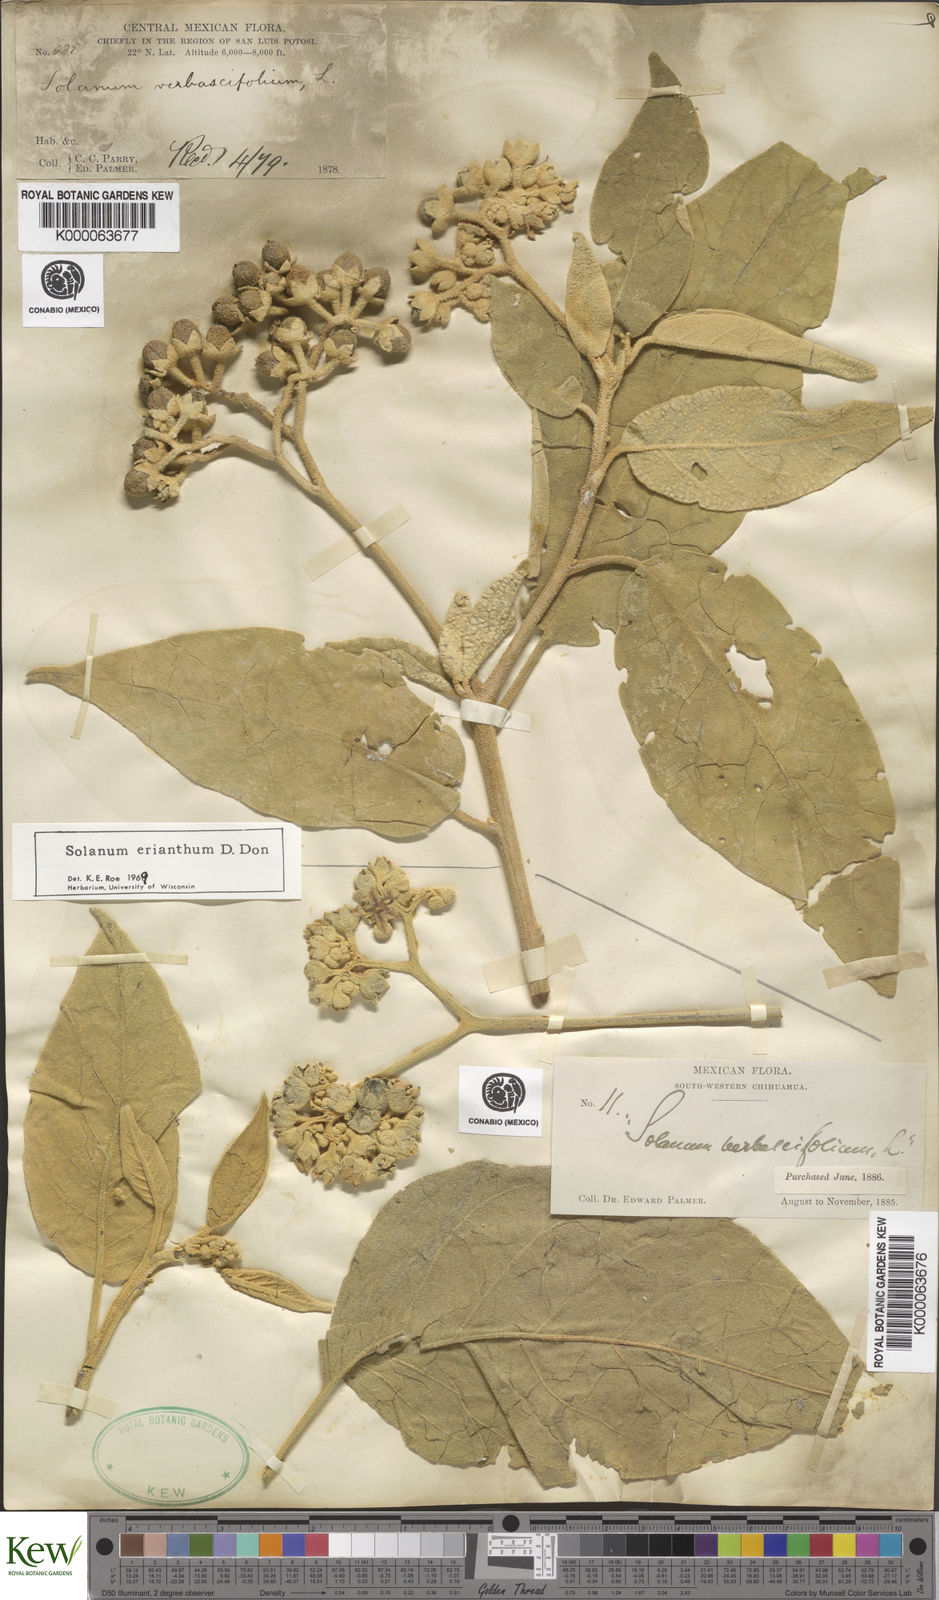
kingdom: Plantae
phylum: Tracheophyta
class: Magnoliopsida
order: Solanales
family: Solanaceae
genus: Solanum
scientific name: Solanum erianthum
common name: Tobacco-tree
